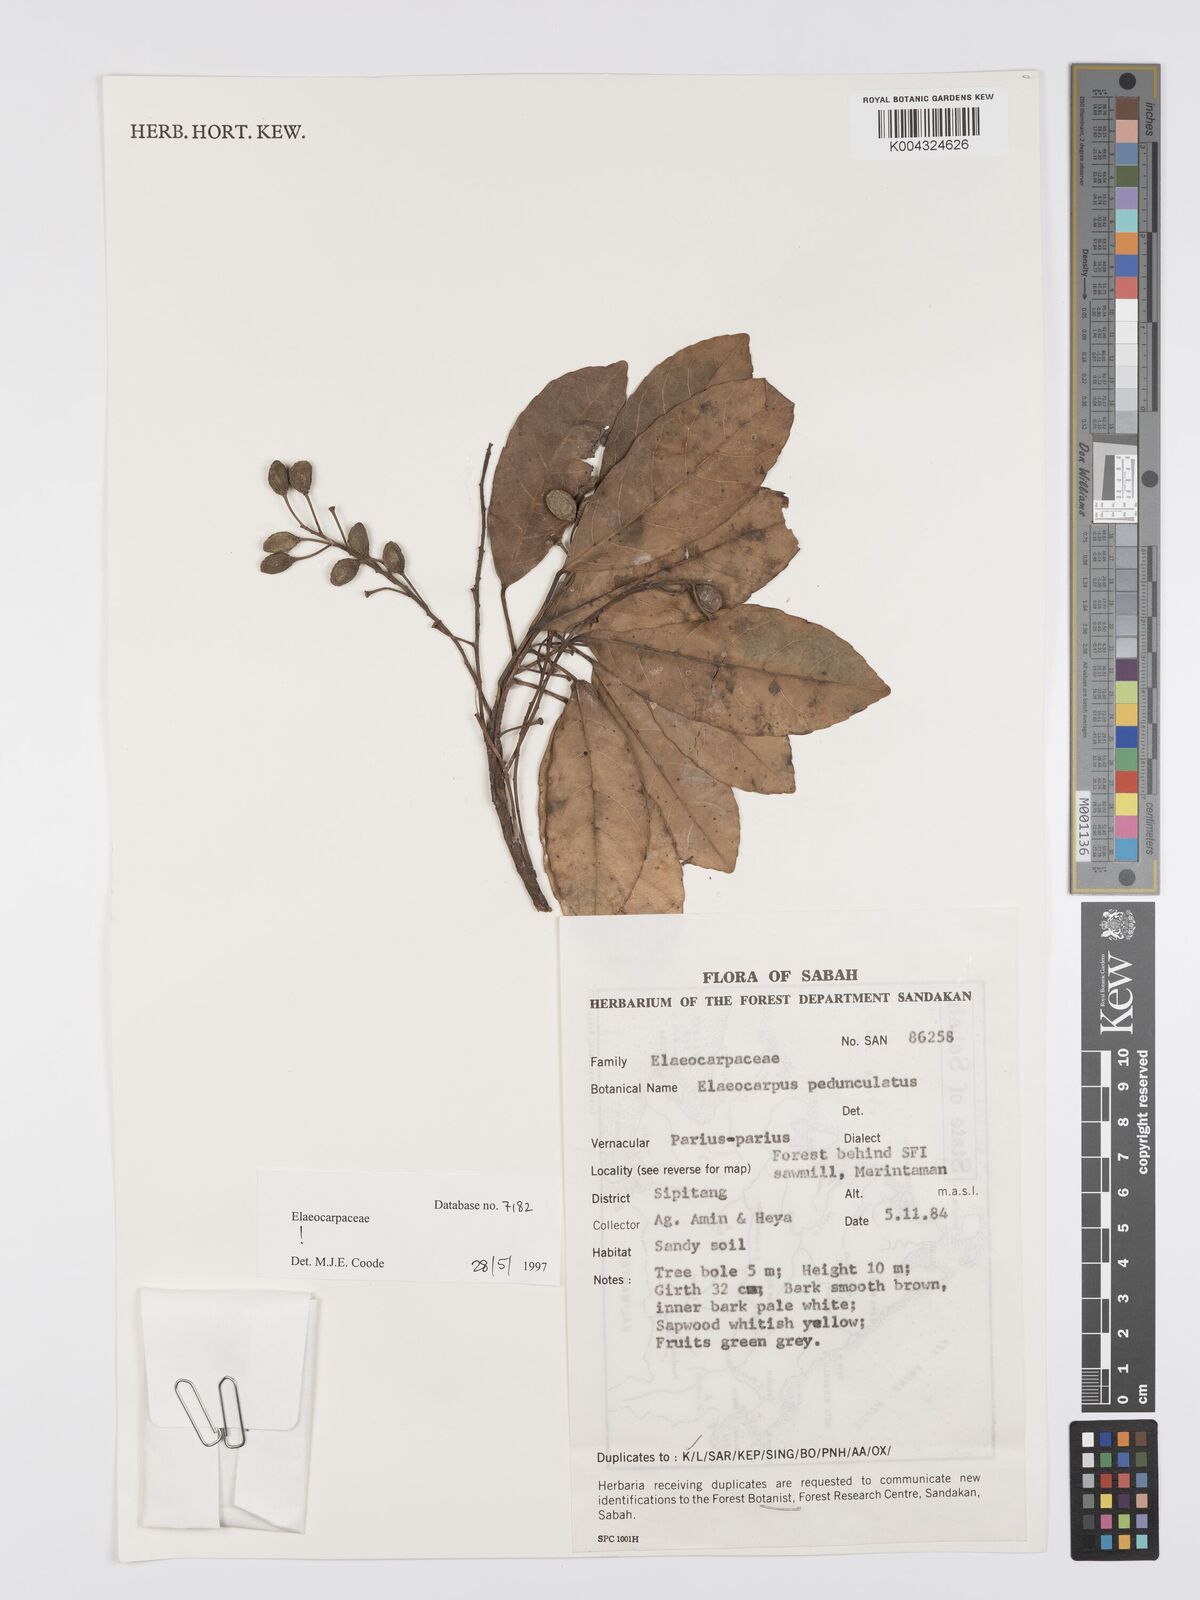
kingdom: Plantae
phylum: Tracheophyta
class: Magnoliopsida
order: Oxalidales
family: Elaeocarpaceae
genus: Elaeocarpus
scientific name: Elaeocarpus pedunculatus
